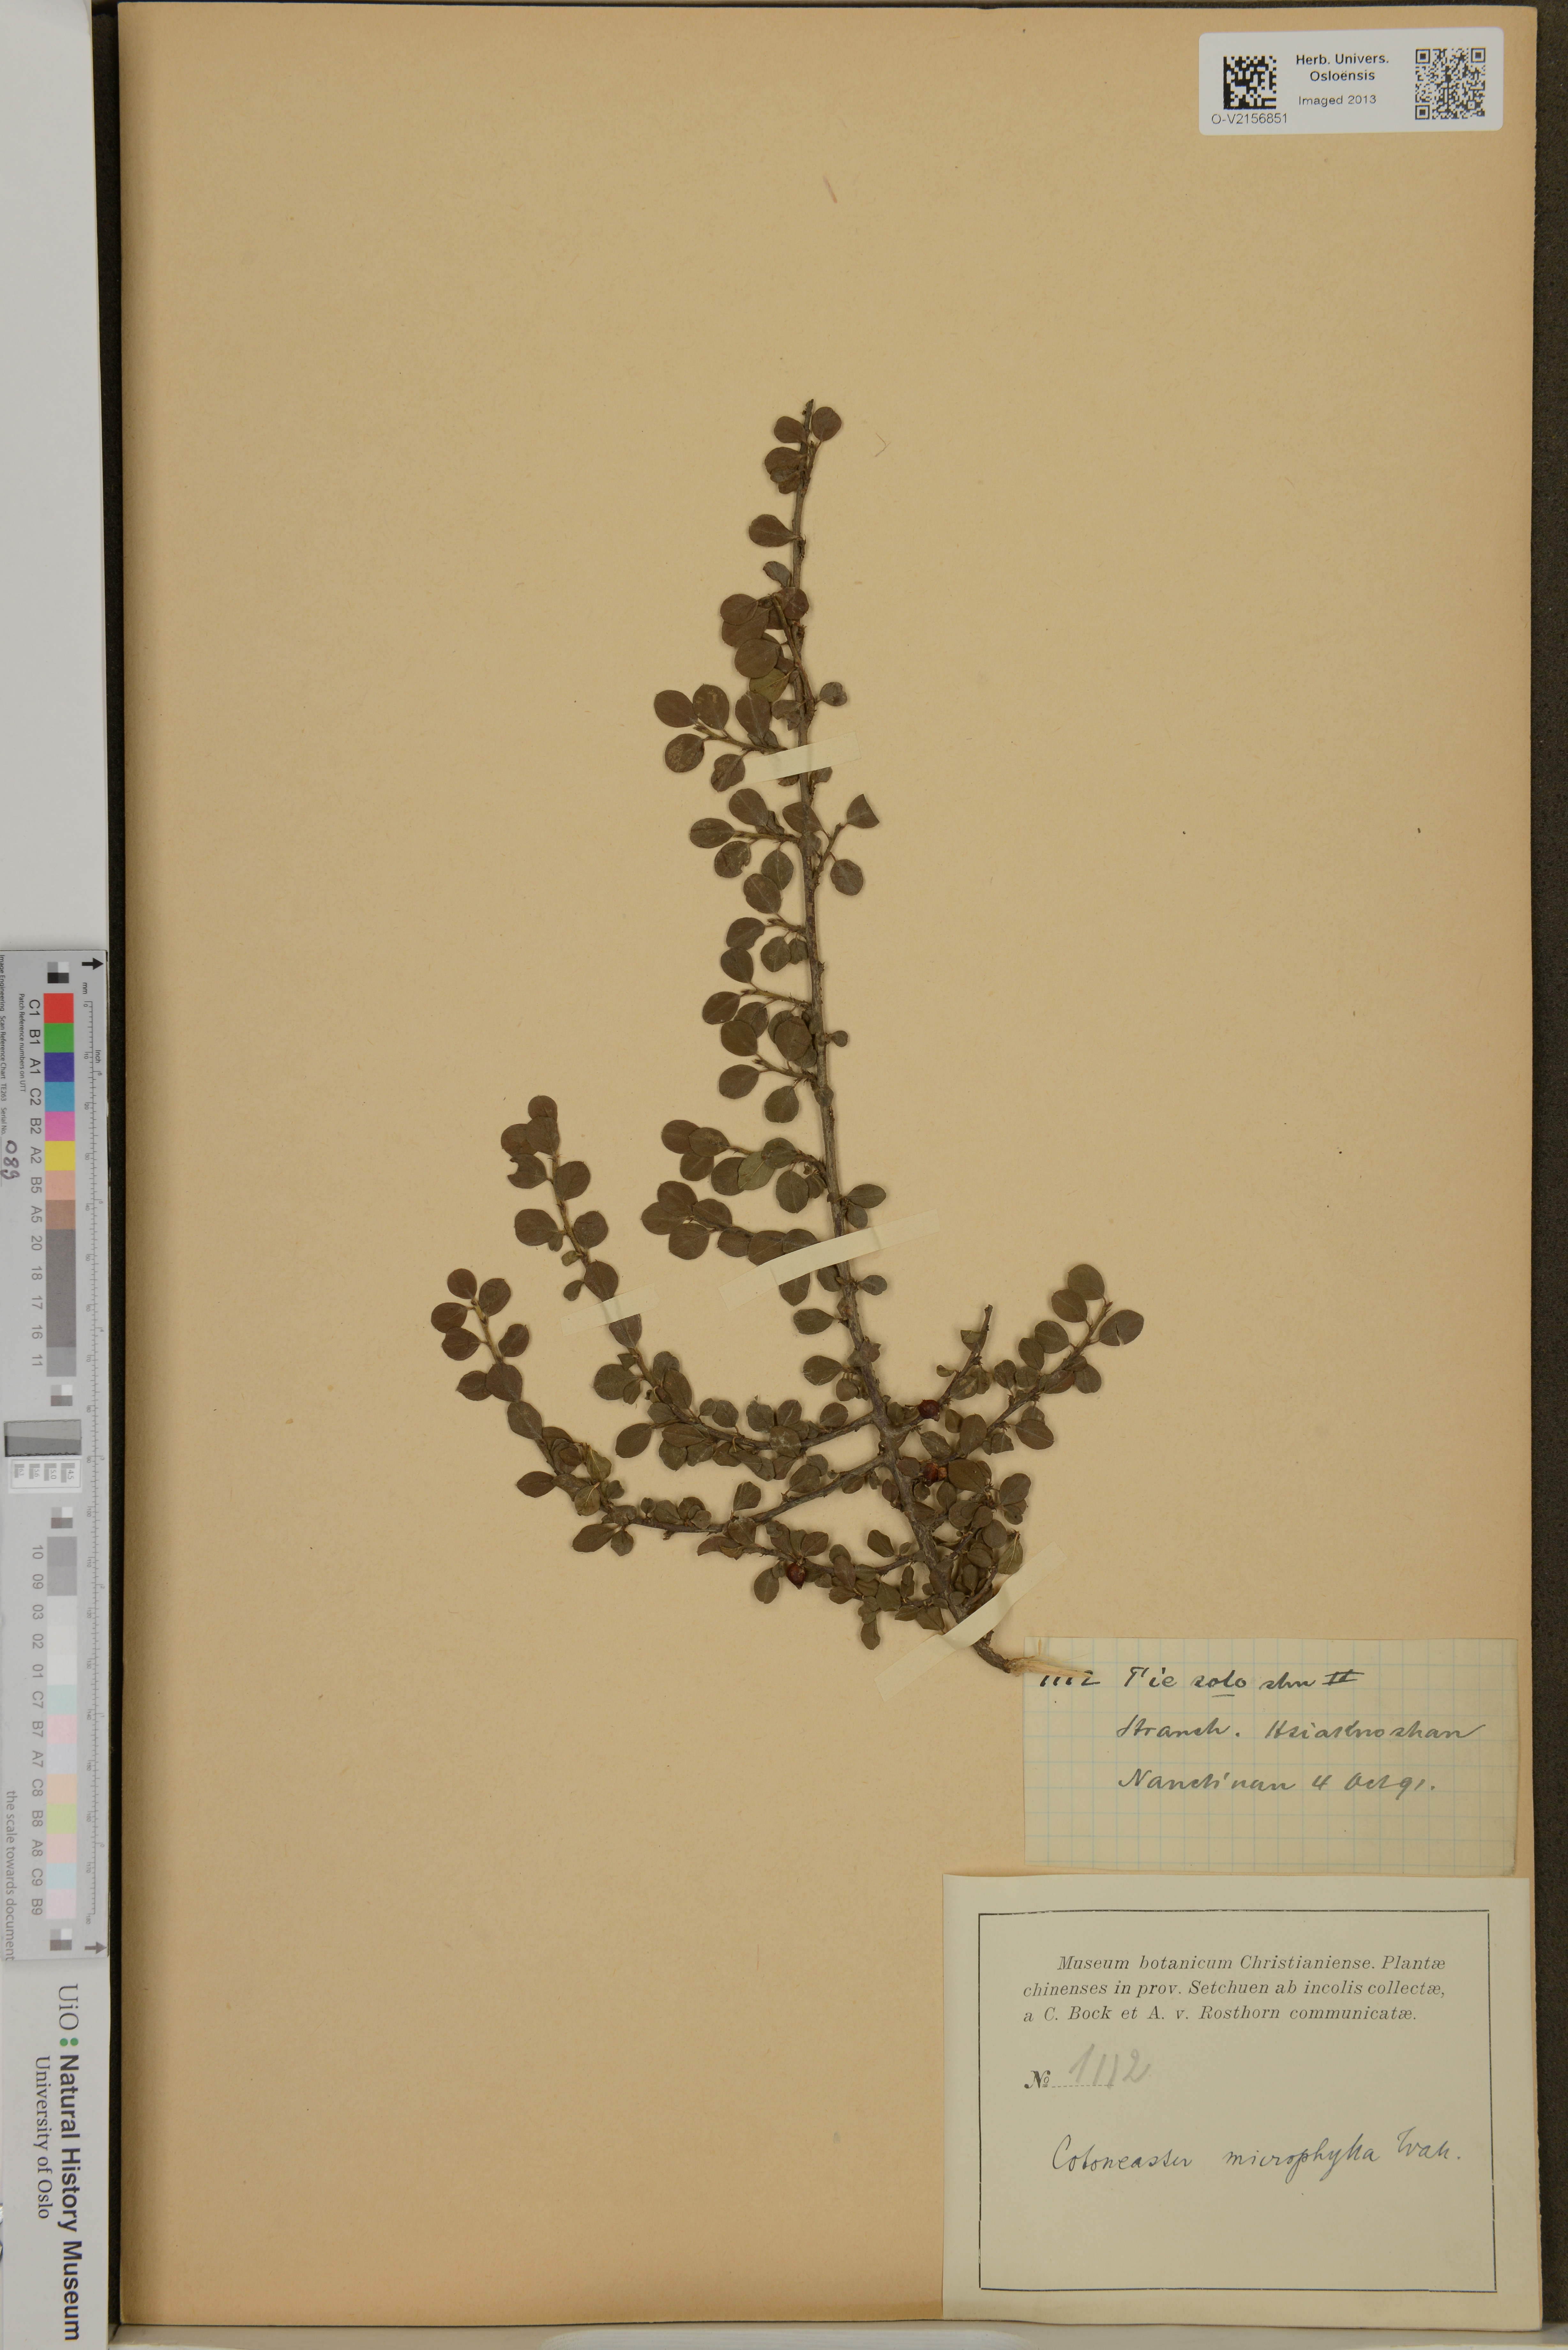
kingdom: Plantae
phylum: Tracheophyta
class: Magnoliopsida
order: Rosales
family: Rosaceae
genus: Cotoneaster
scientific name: Cotoneaster microphyllus
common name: Small-leaved cotoneaster
